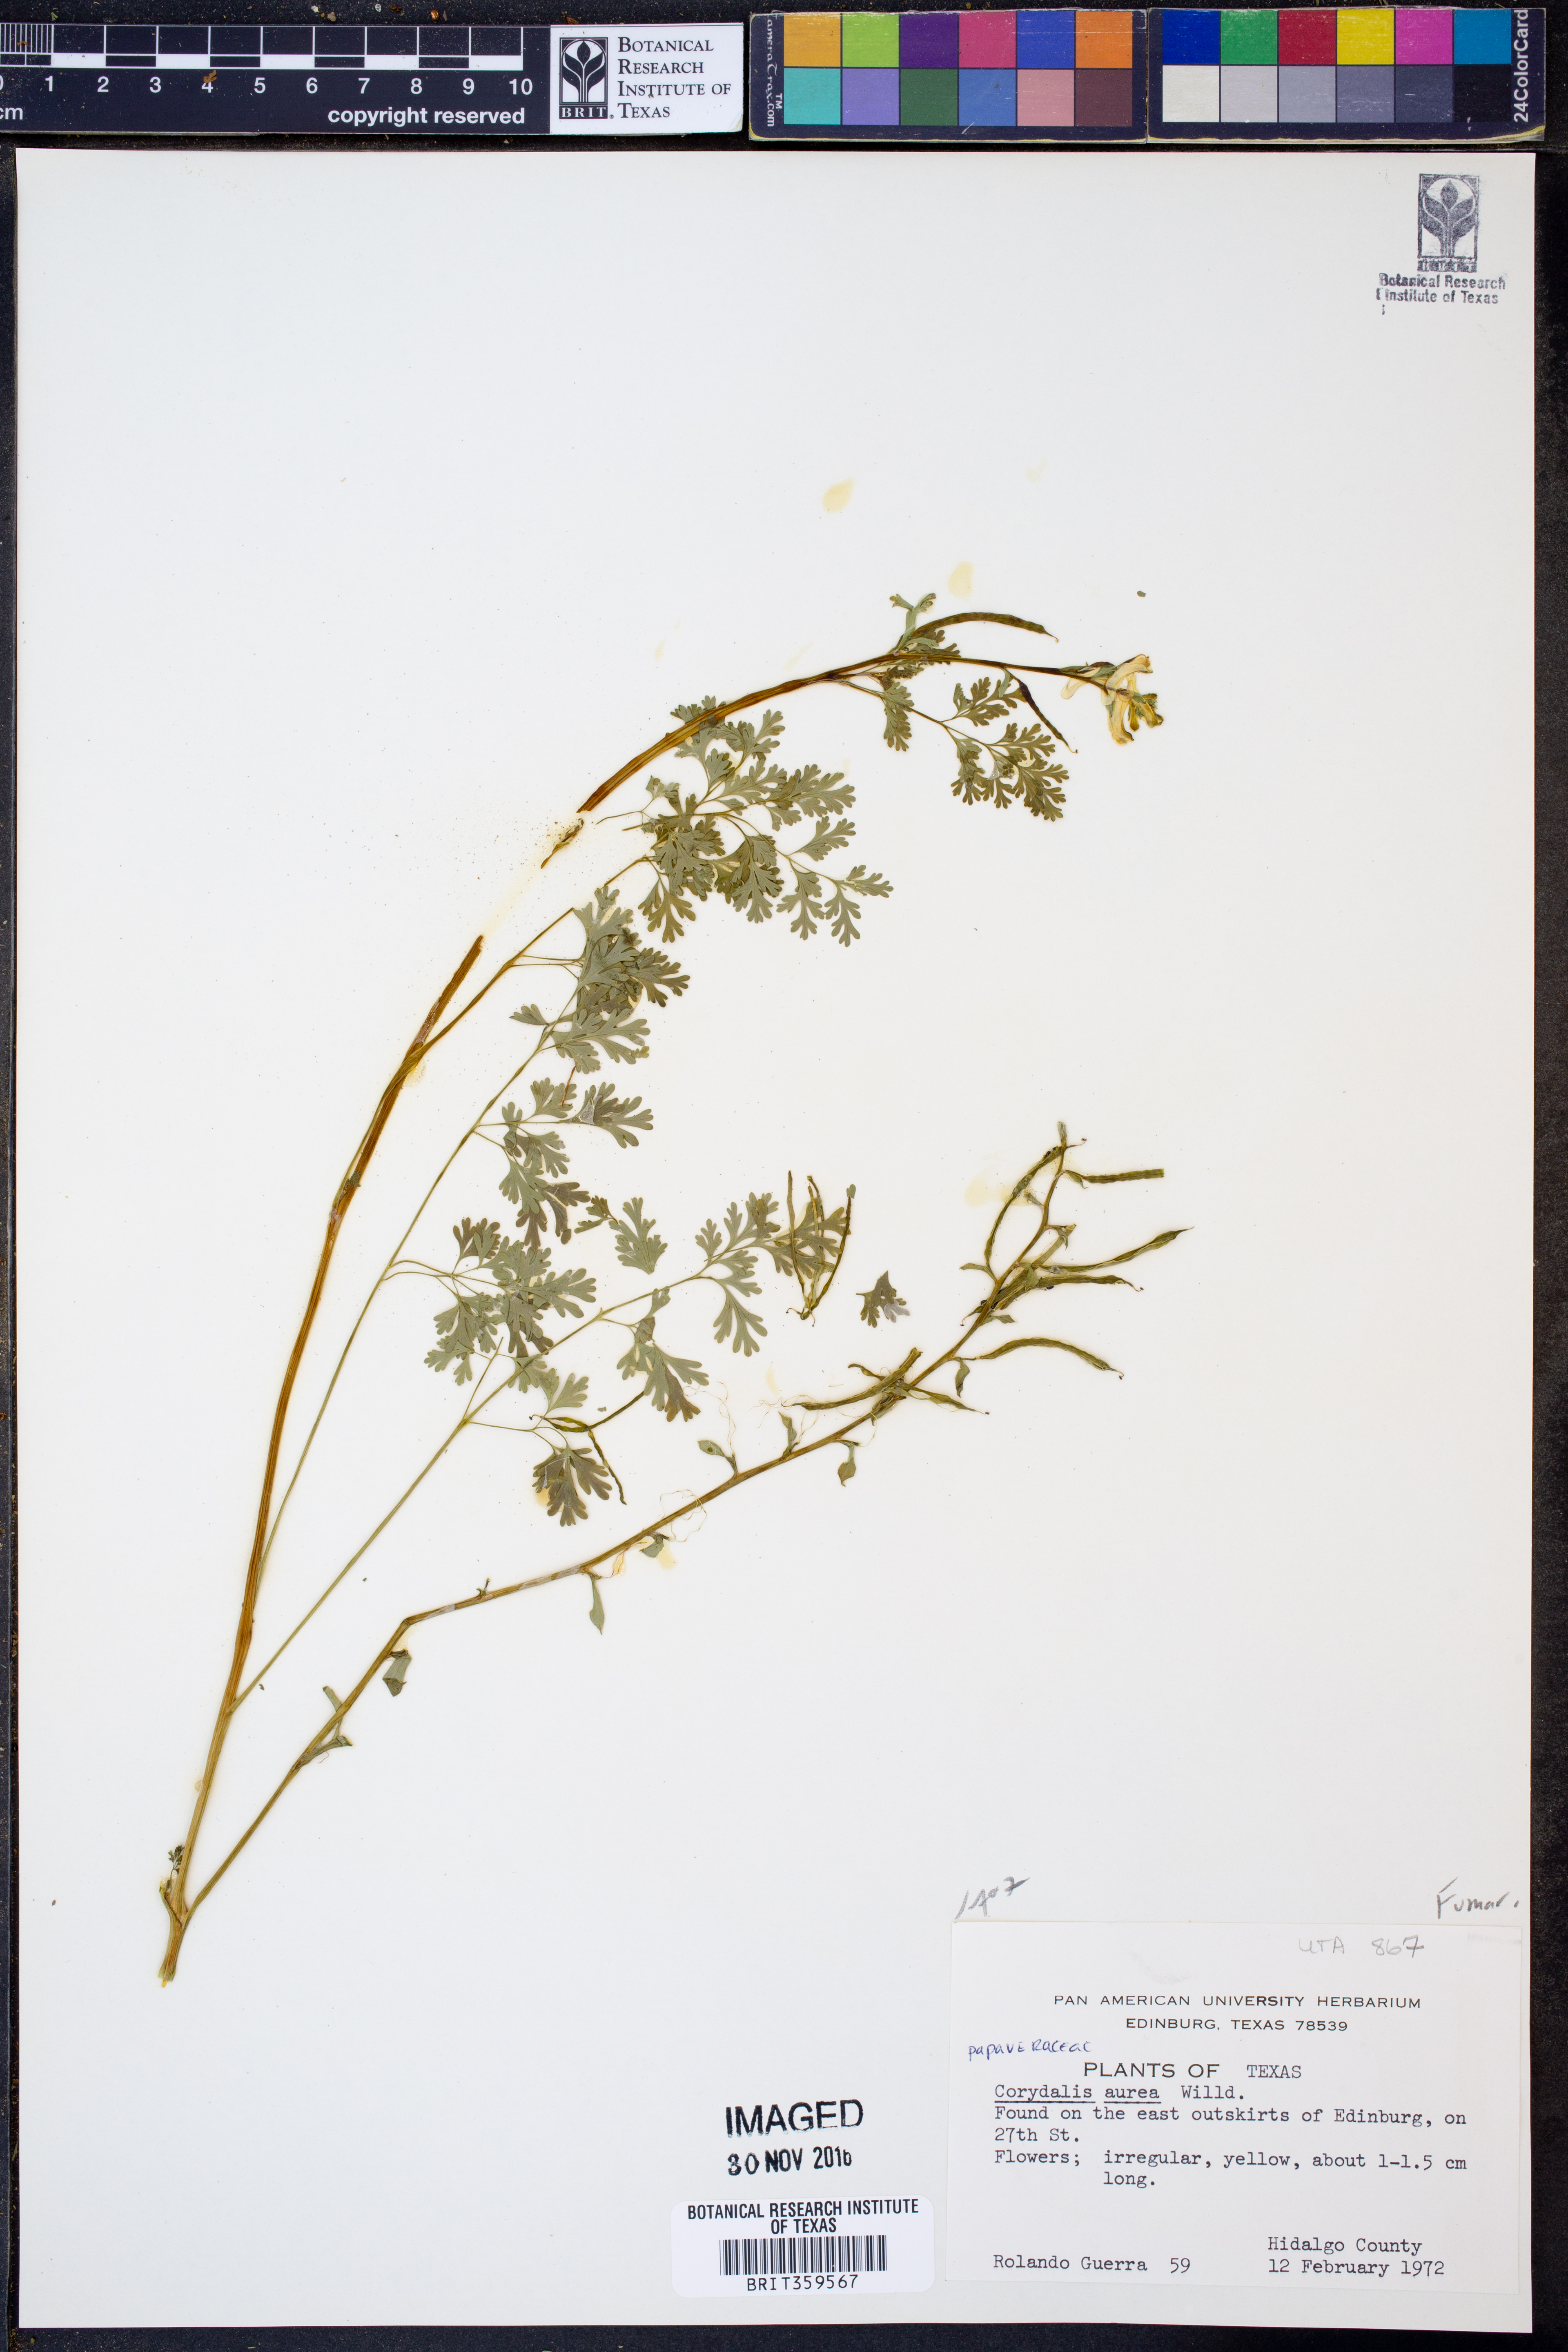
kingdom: Plantae
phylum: Tracheophyta
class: Magnoliopsida
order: Ranunculales
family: Papaveraceae
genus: Corydalis
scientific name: Corydalis aurea
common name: Golden corydalis
